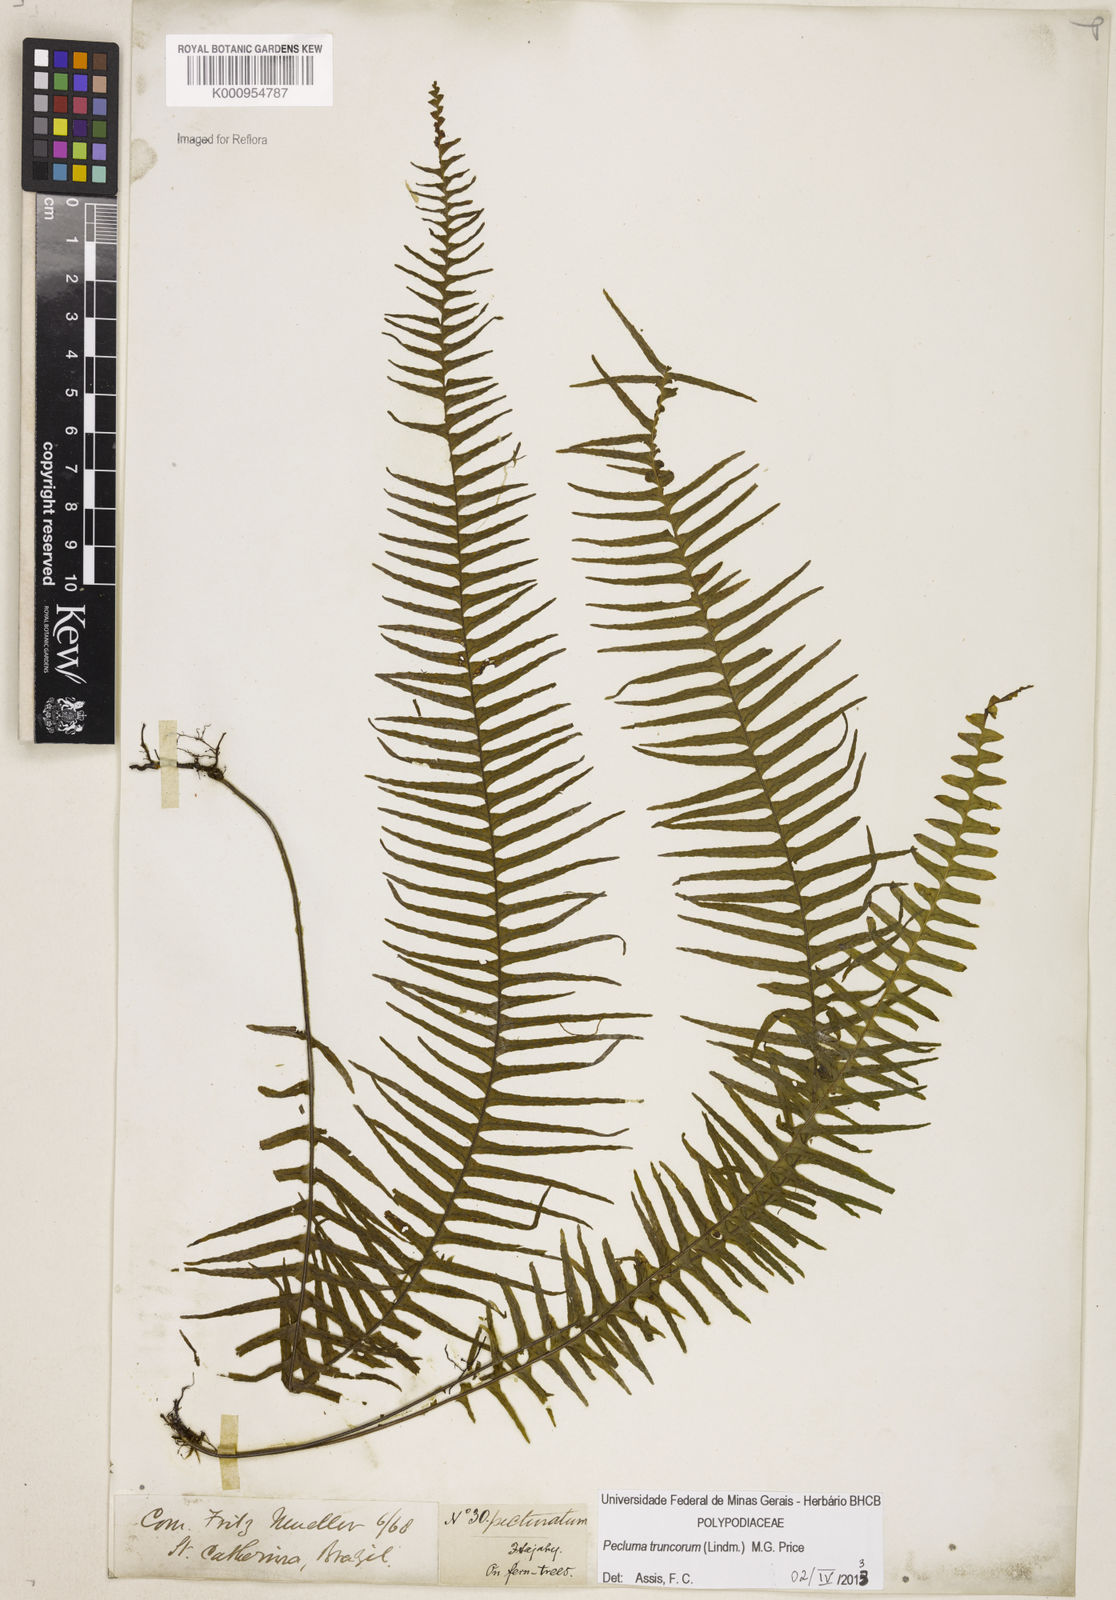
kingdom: Plantae
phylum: Tracheophyta
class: Polypodiopsida
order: Polypodiales
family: Polypodiaceae
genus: Pecluma
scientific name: Pecluma truncorum
